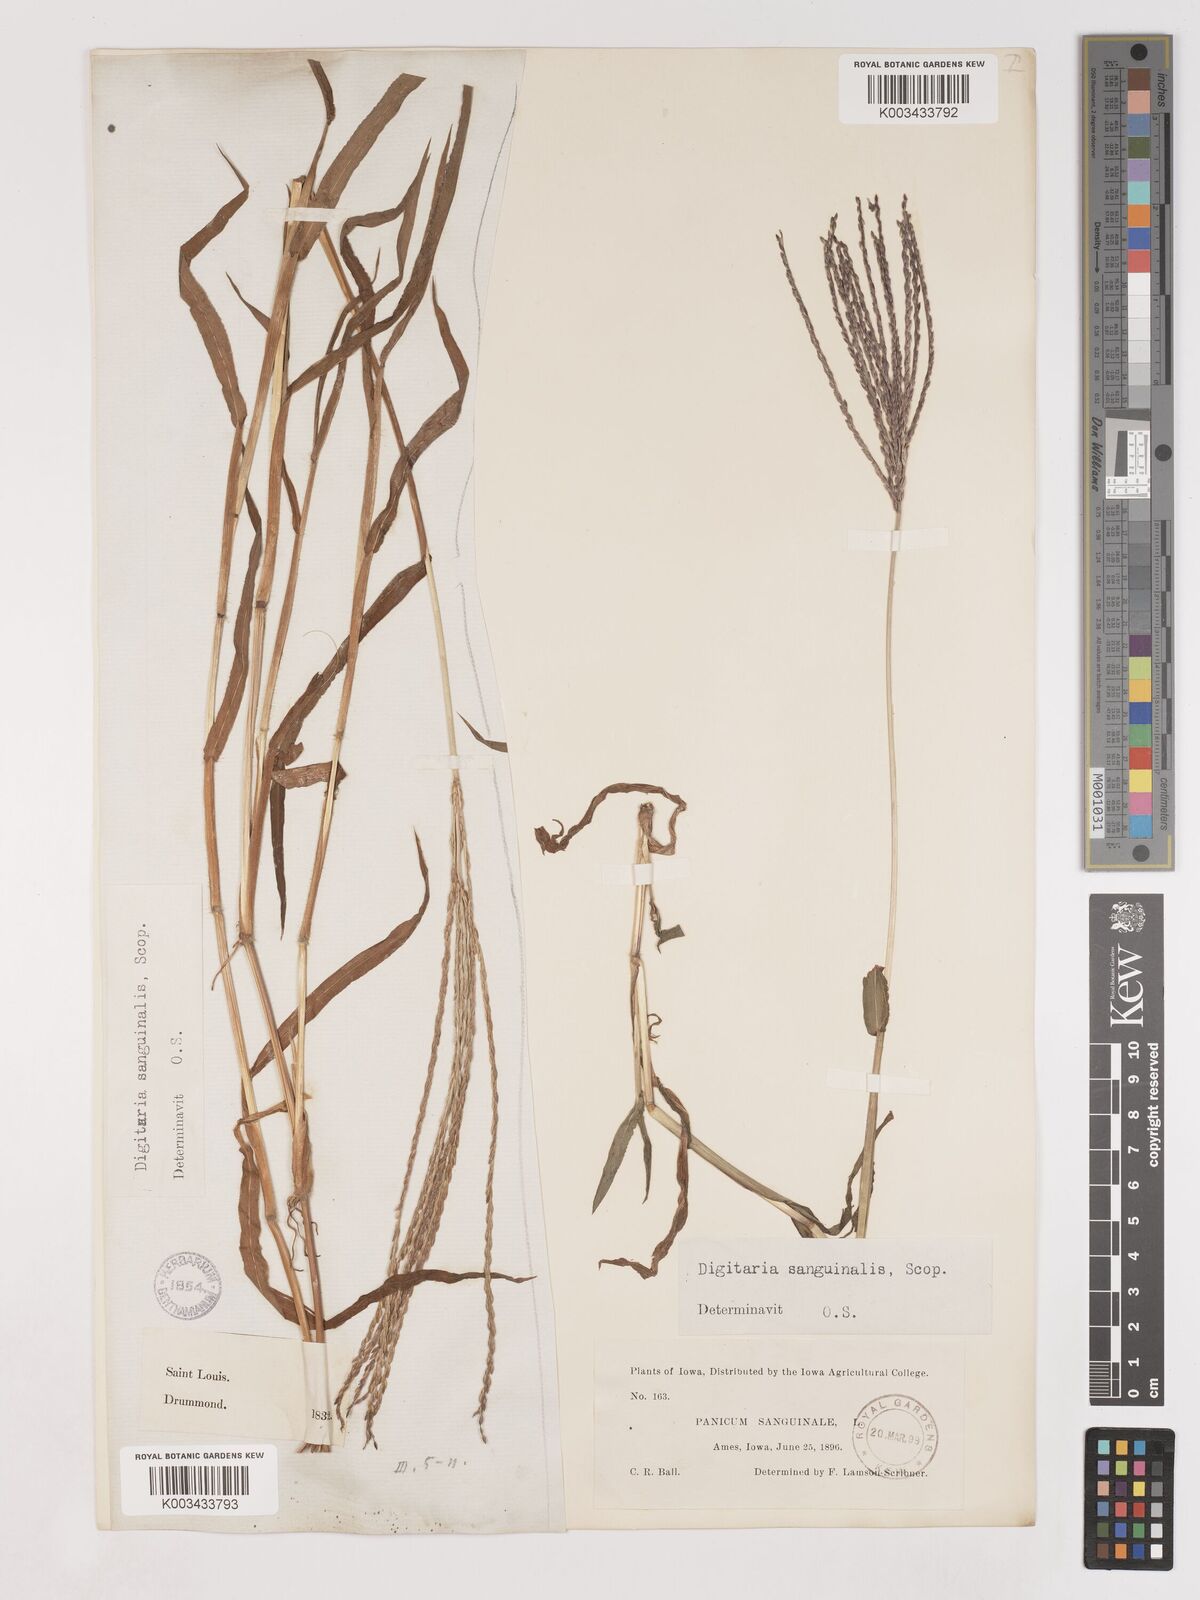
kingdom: Plantae
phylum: Tracheophyta
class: Liliopsida
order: Poales
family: Poaceae
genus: Digitaria
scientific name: Digitaria sanguinalis
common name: Hairy crabgrass
